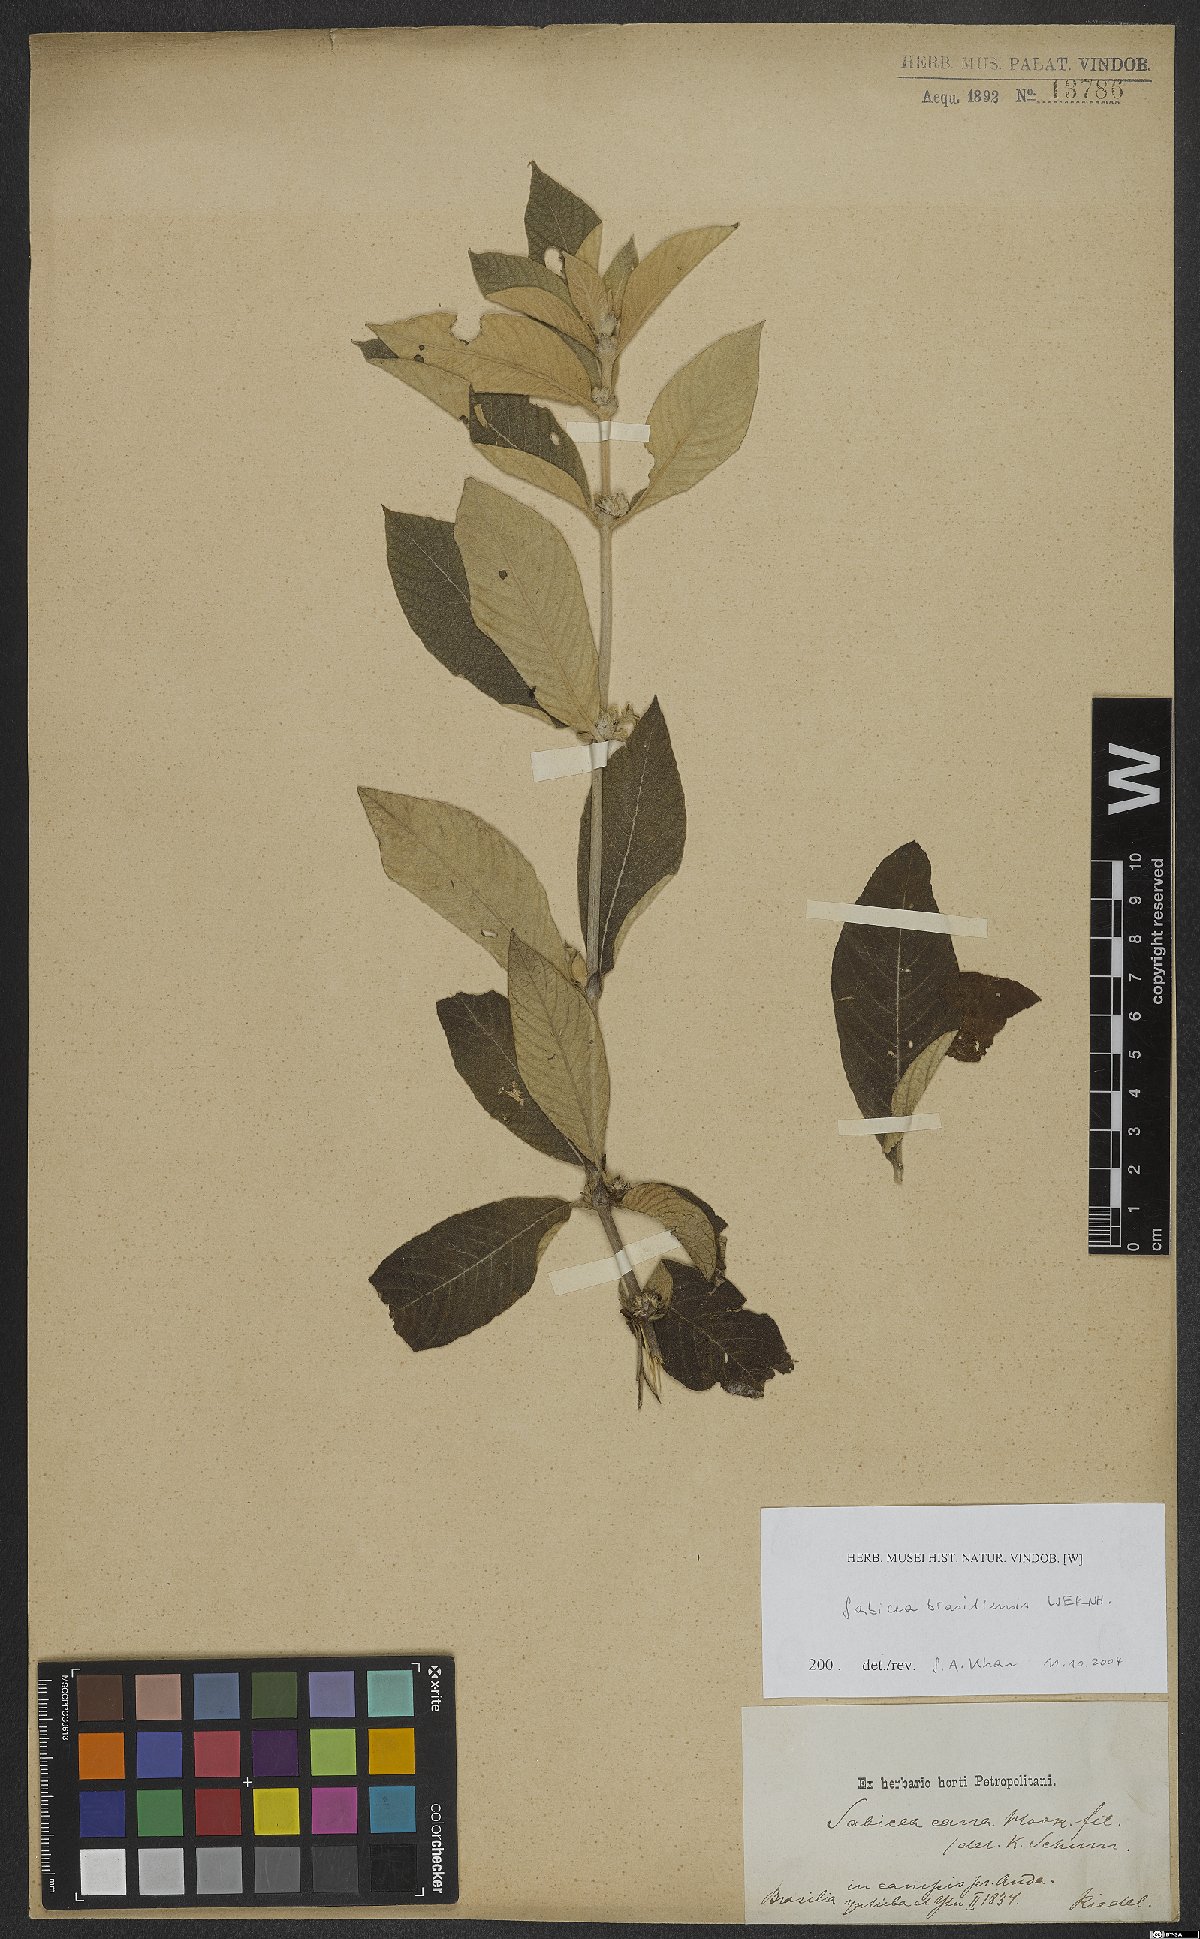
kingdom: Plantae
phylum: Tracheophyta
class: Magnoliopsida
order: Gentianales
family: Rubiaceae
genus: Sabicea
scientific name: Sabicea brasiliensis
